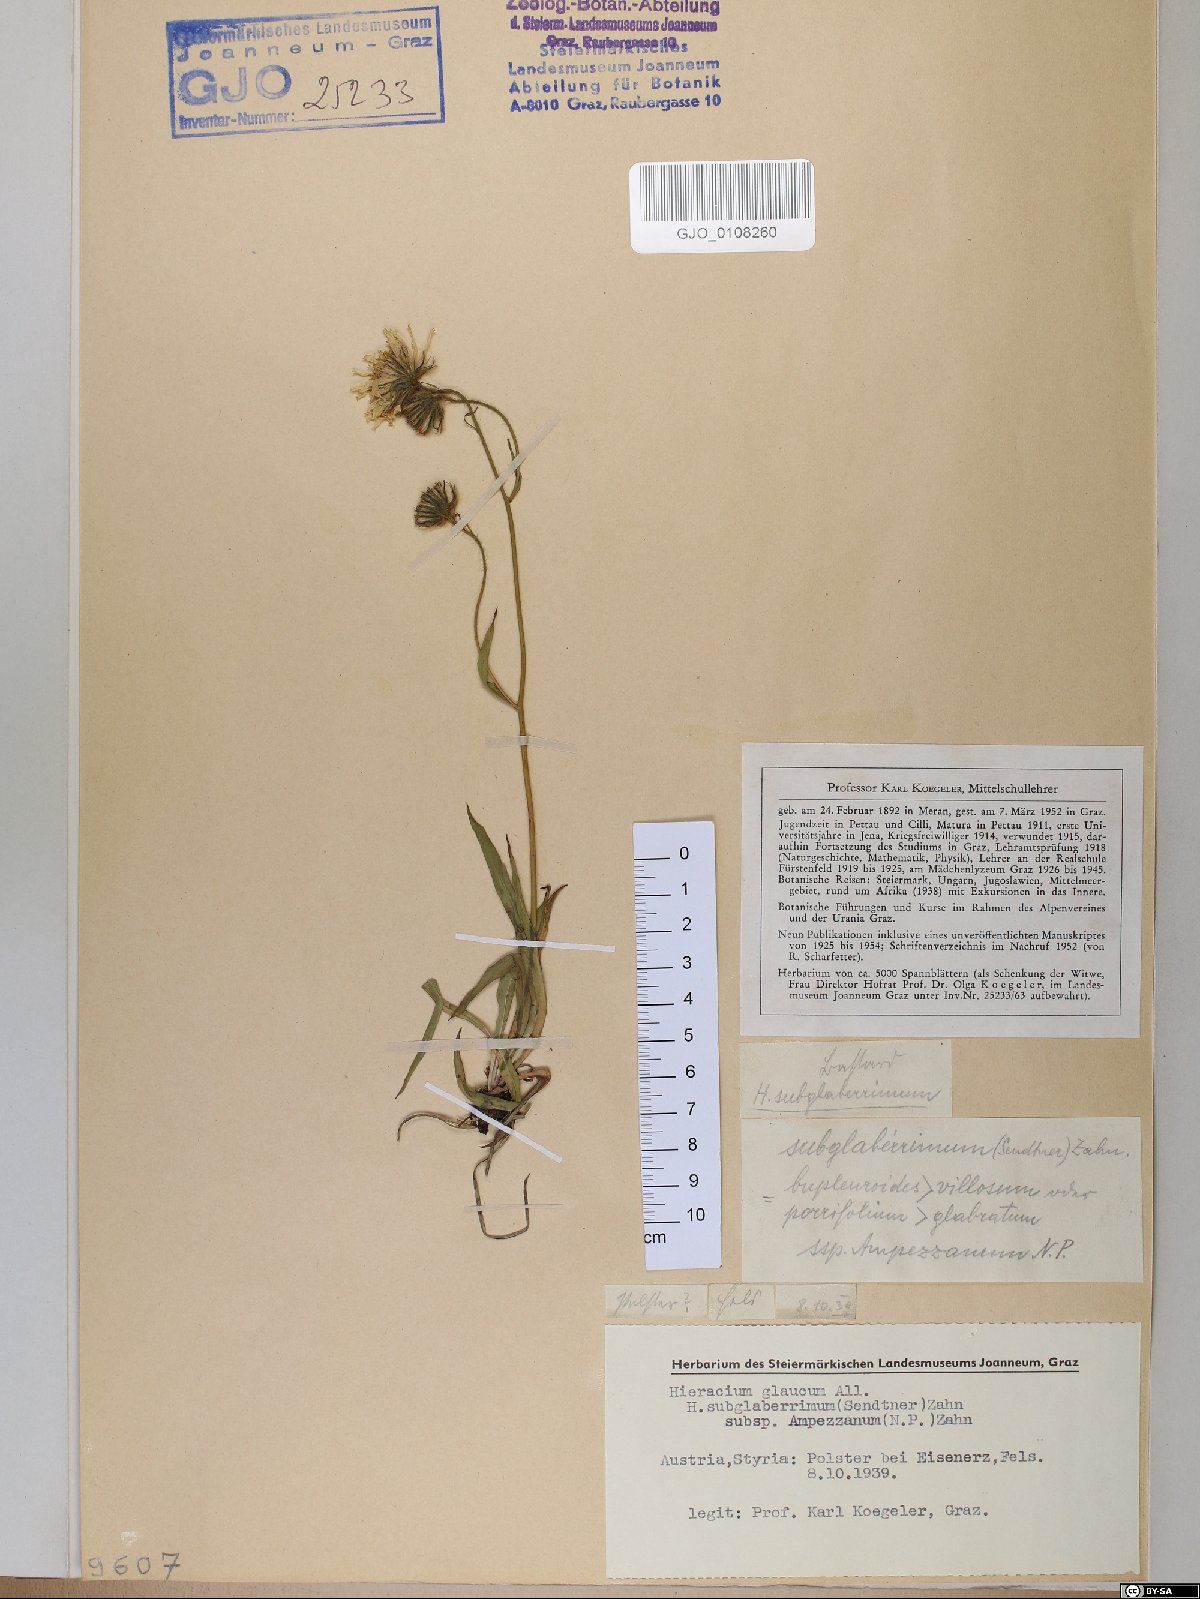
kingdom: Plantae
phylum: Tracheophyta
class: Magnoliopsida
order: Asterales
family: Asteraceae
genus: Hieracium
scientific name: Hieracium sparsiramum
